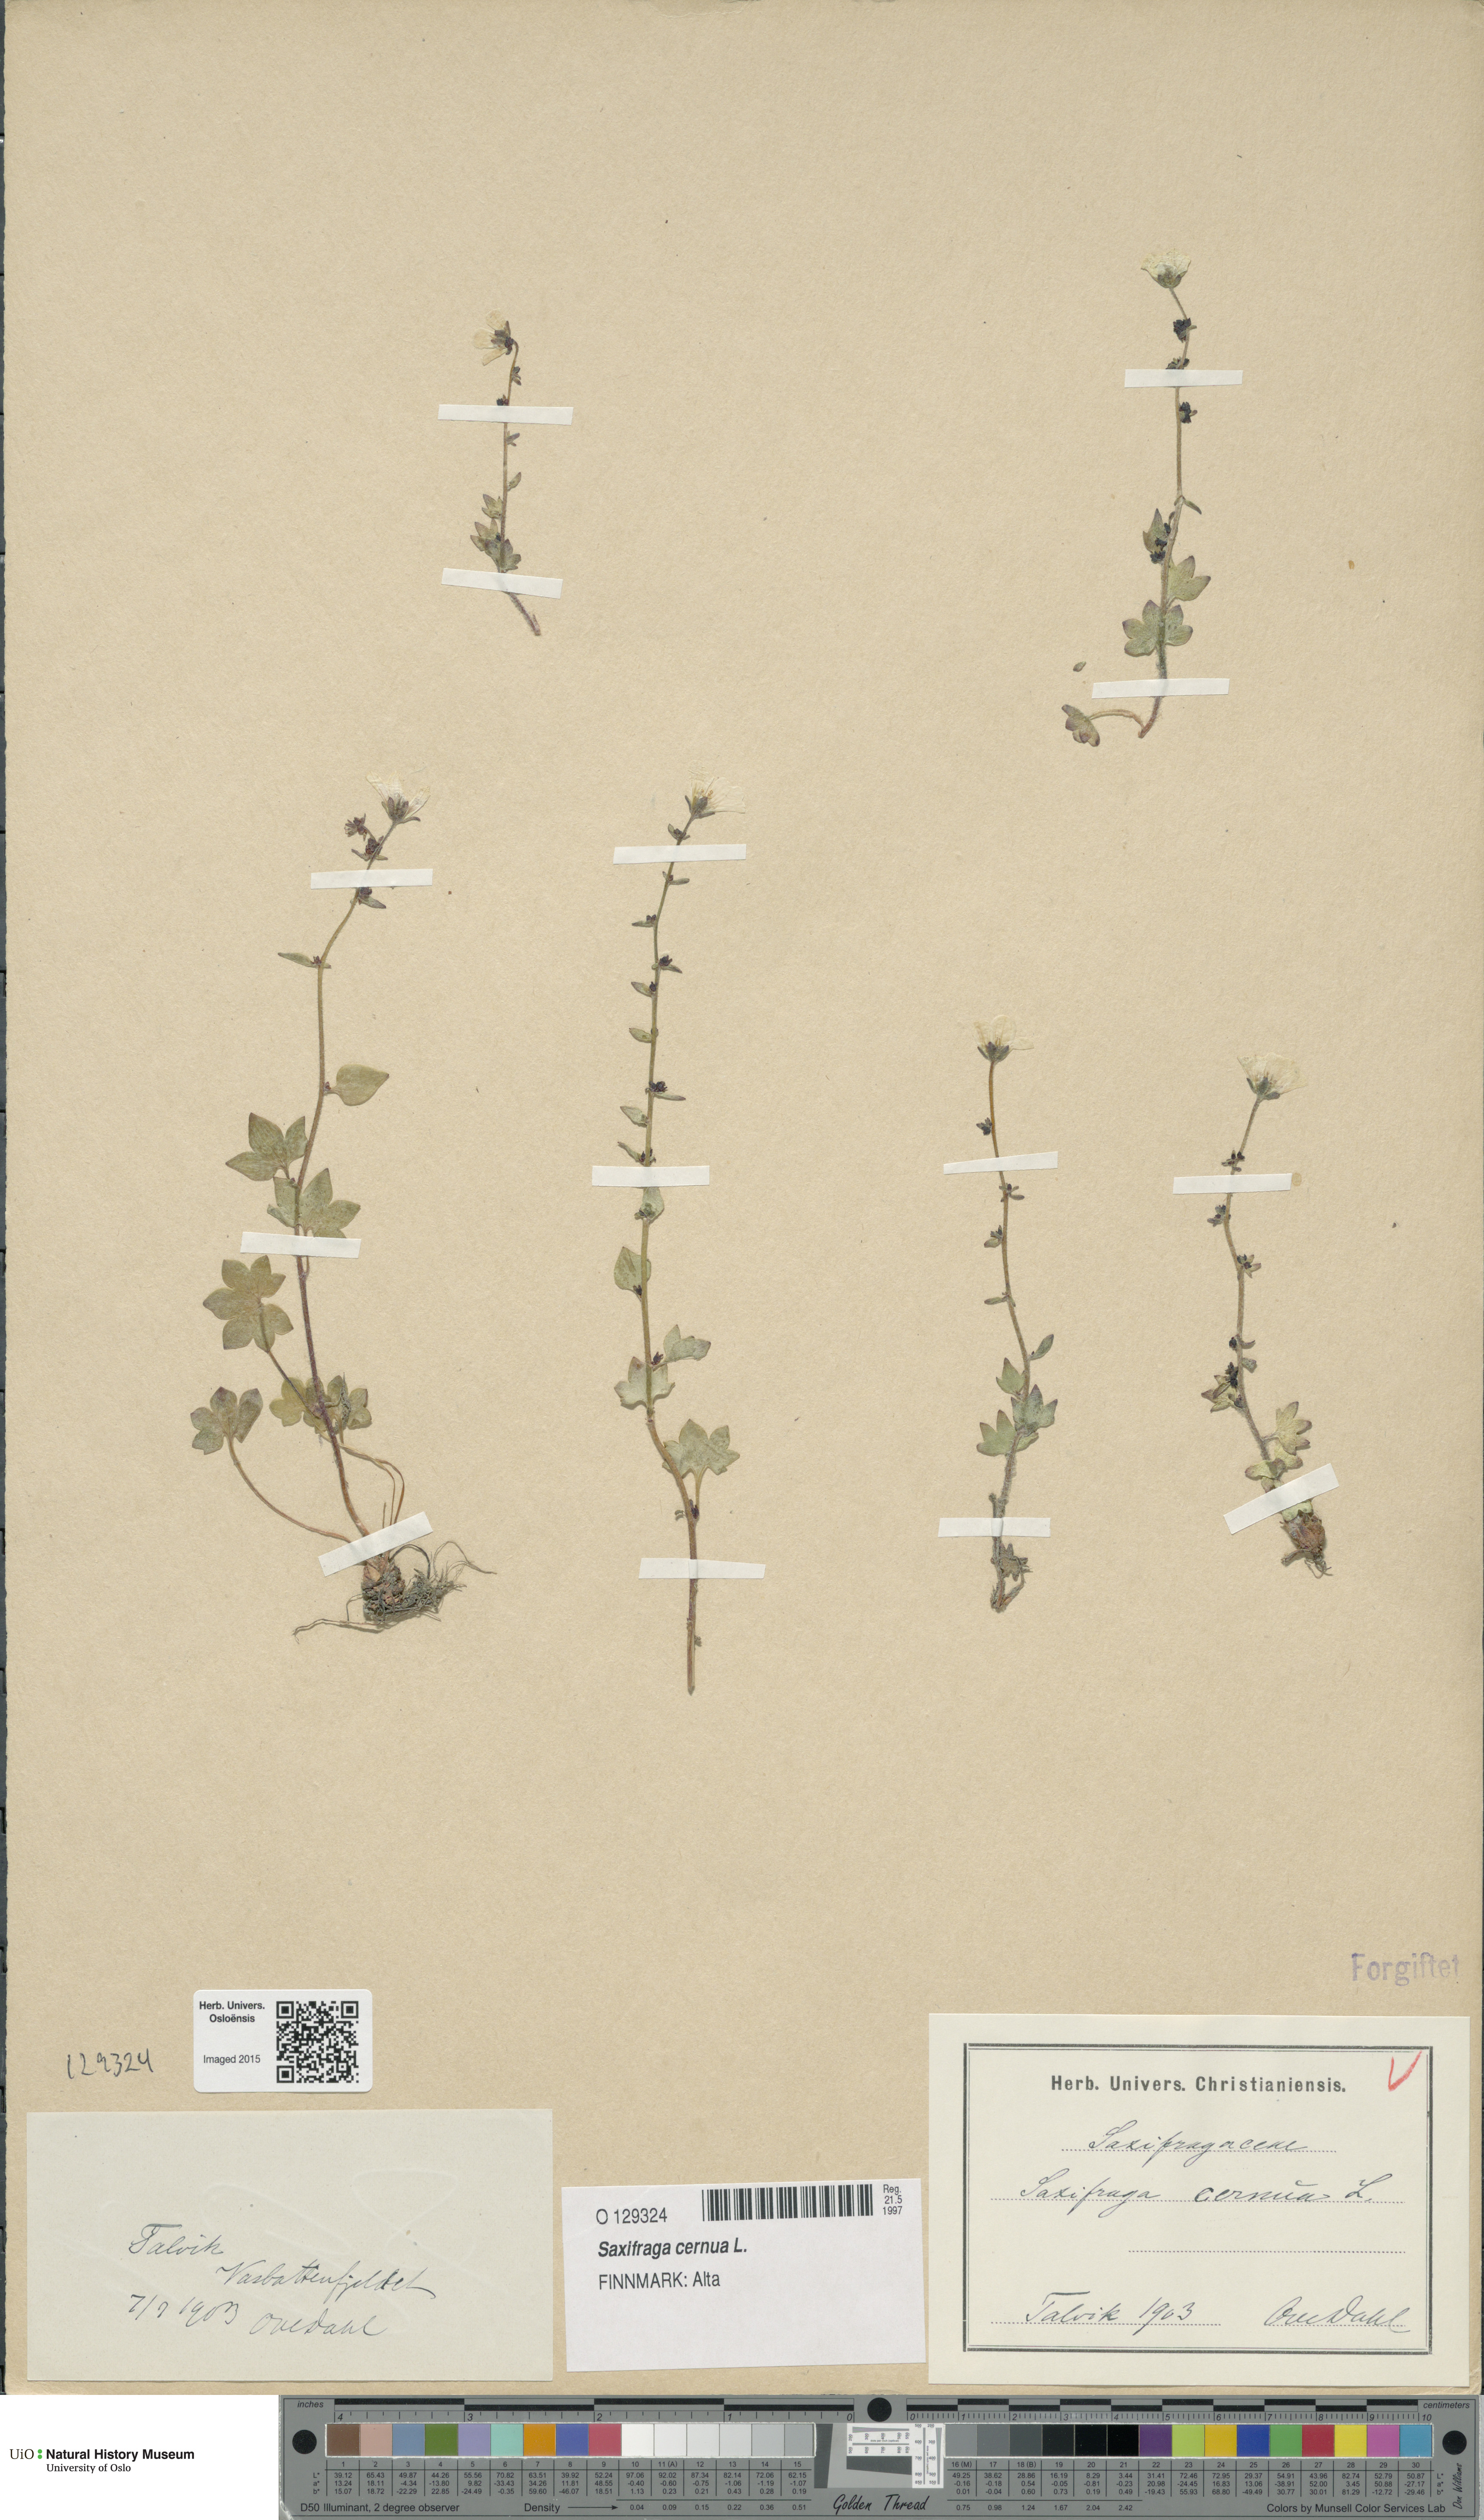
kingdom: Plantae
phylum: Tracheophyta
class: Magnoliopsida
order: Saxifragales
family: Saxifragaceae
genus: Saxifraga
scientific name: Saxifraga cernua
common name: Drooping saxifrage
